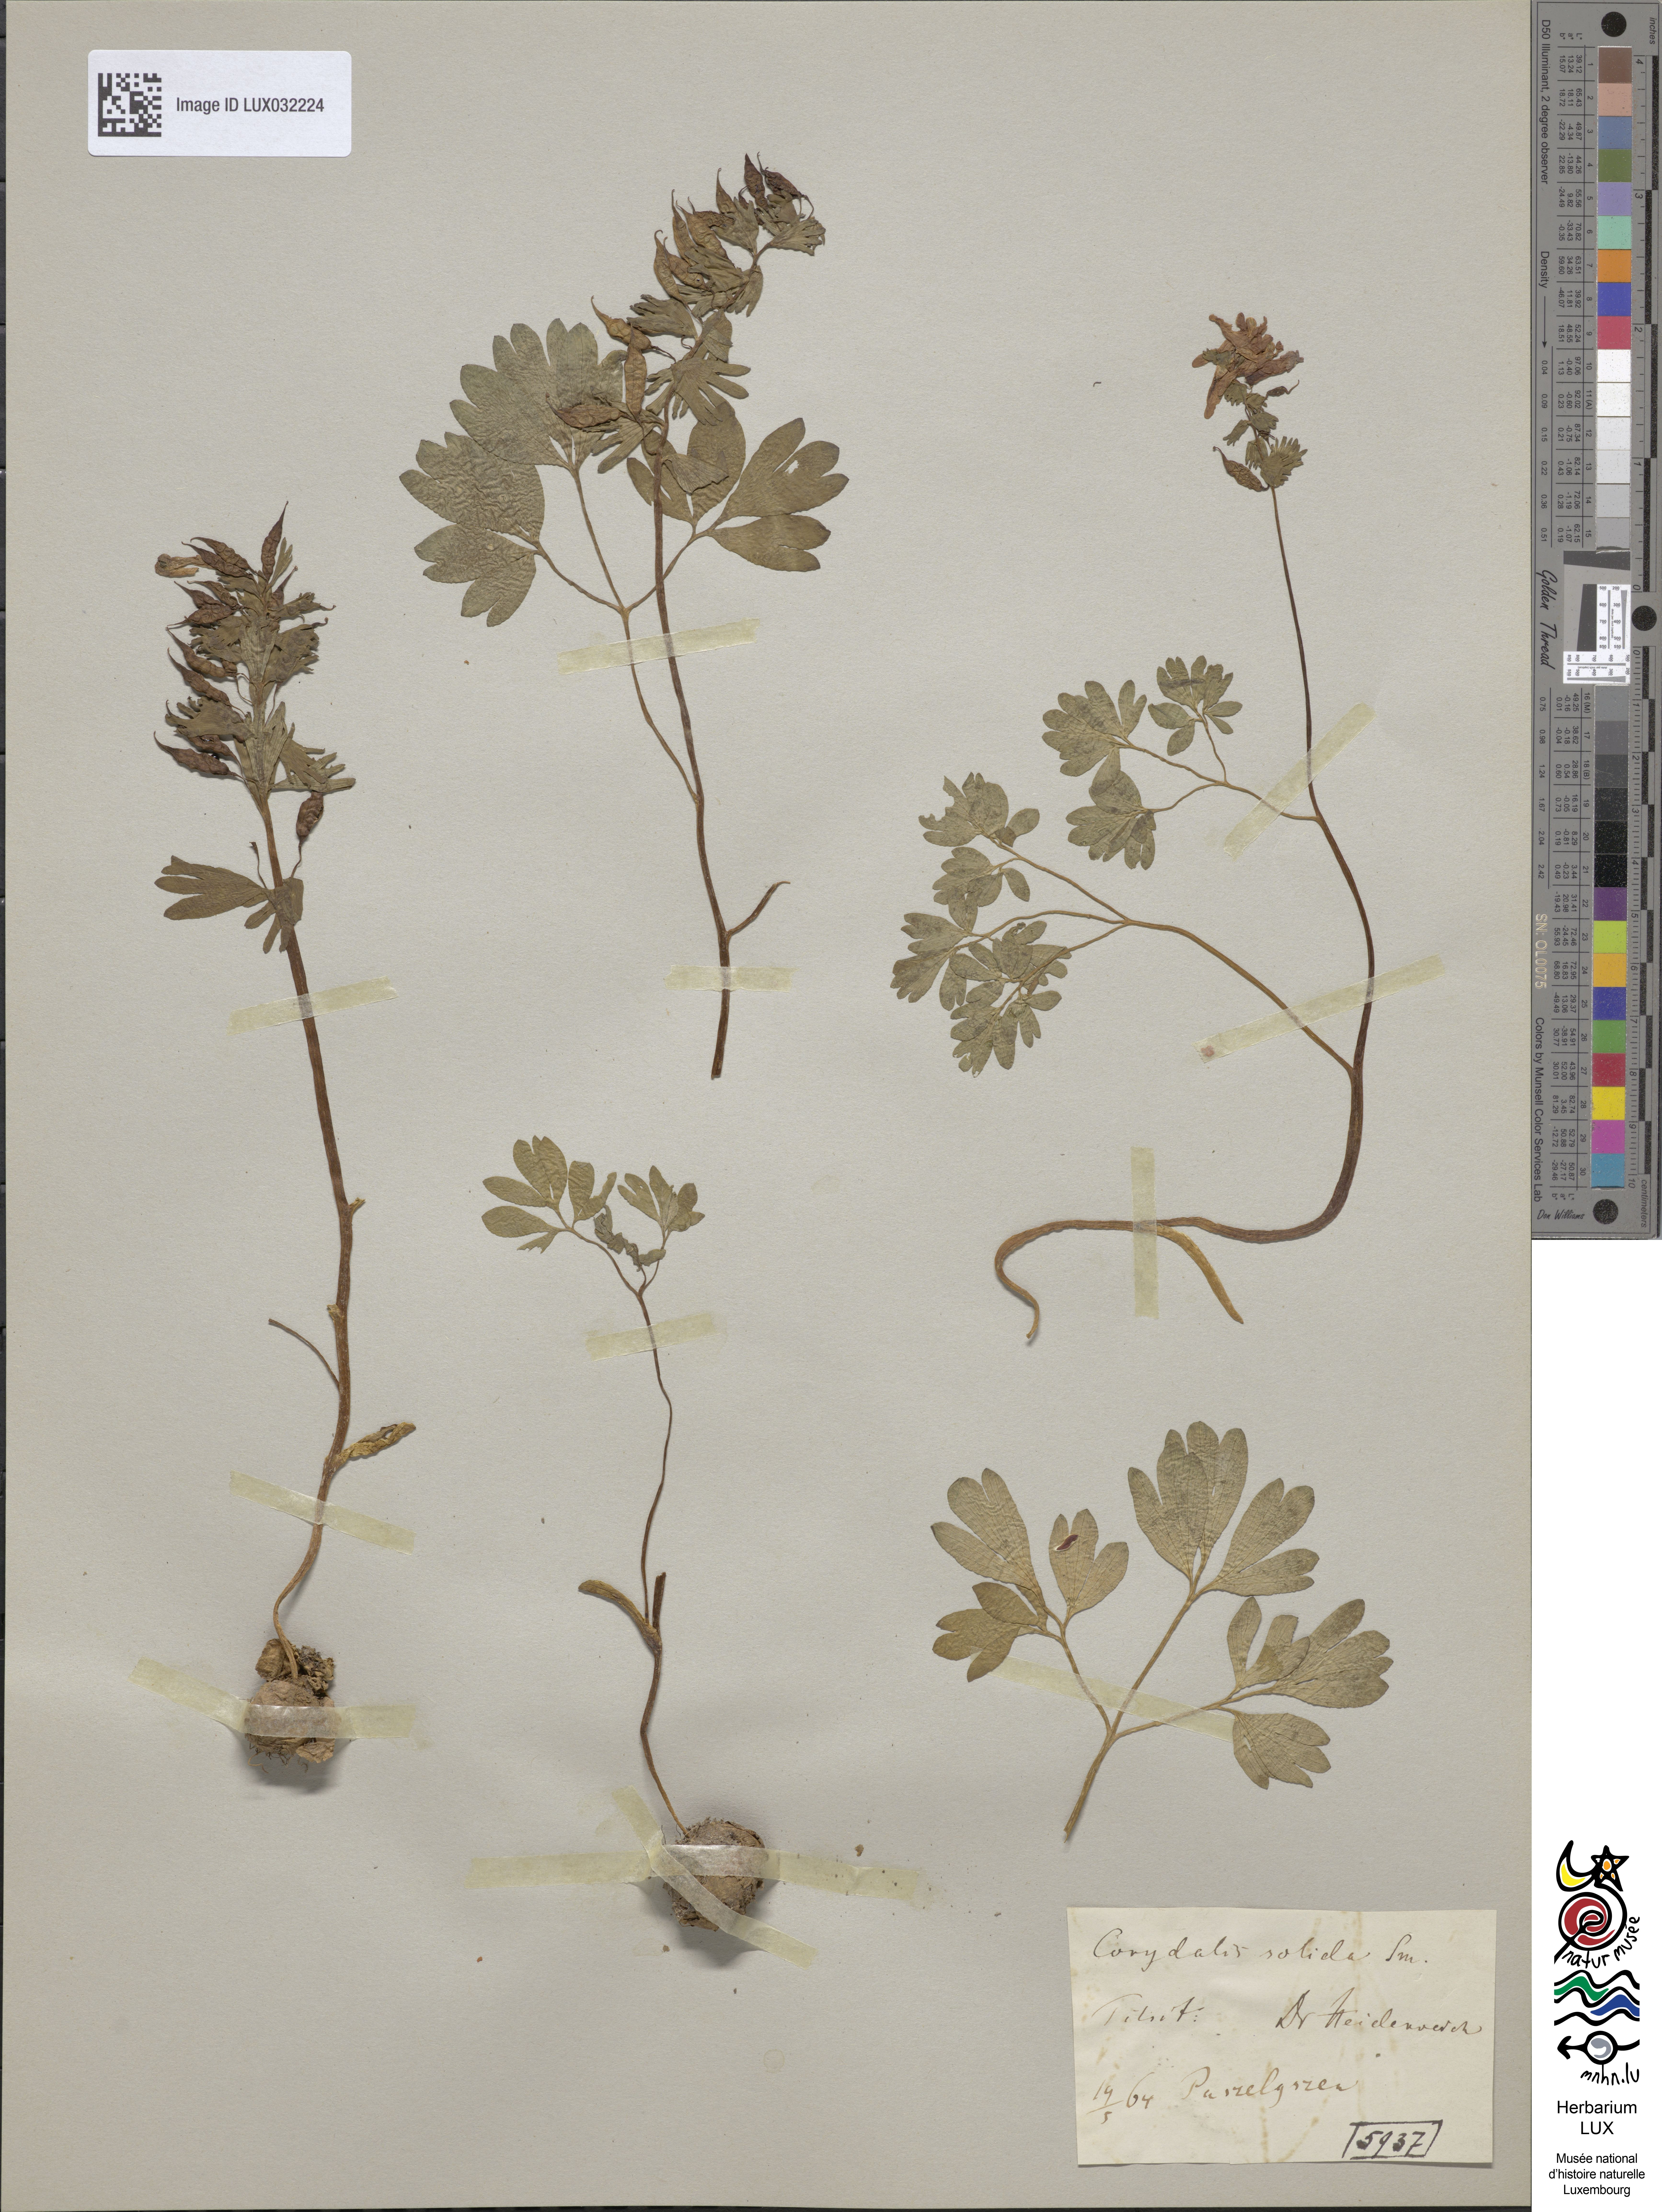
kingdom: Plantae
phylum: Tracheophyta
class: Magnoliopsida
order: Ranunculales
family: Papaveraceae
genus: Corydalis
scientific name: Corydalis solida
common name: Bird-in-a-bush
